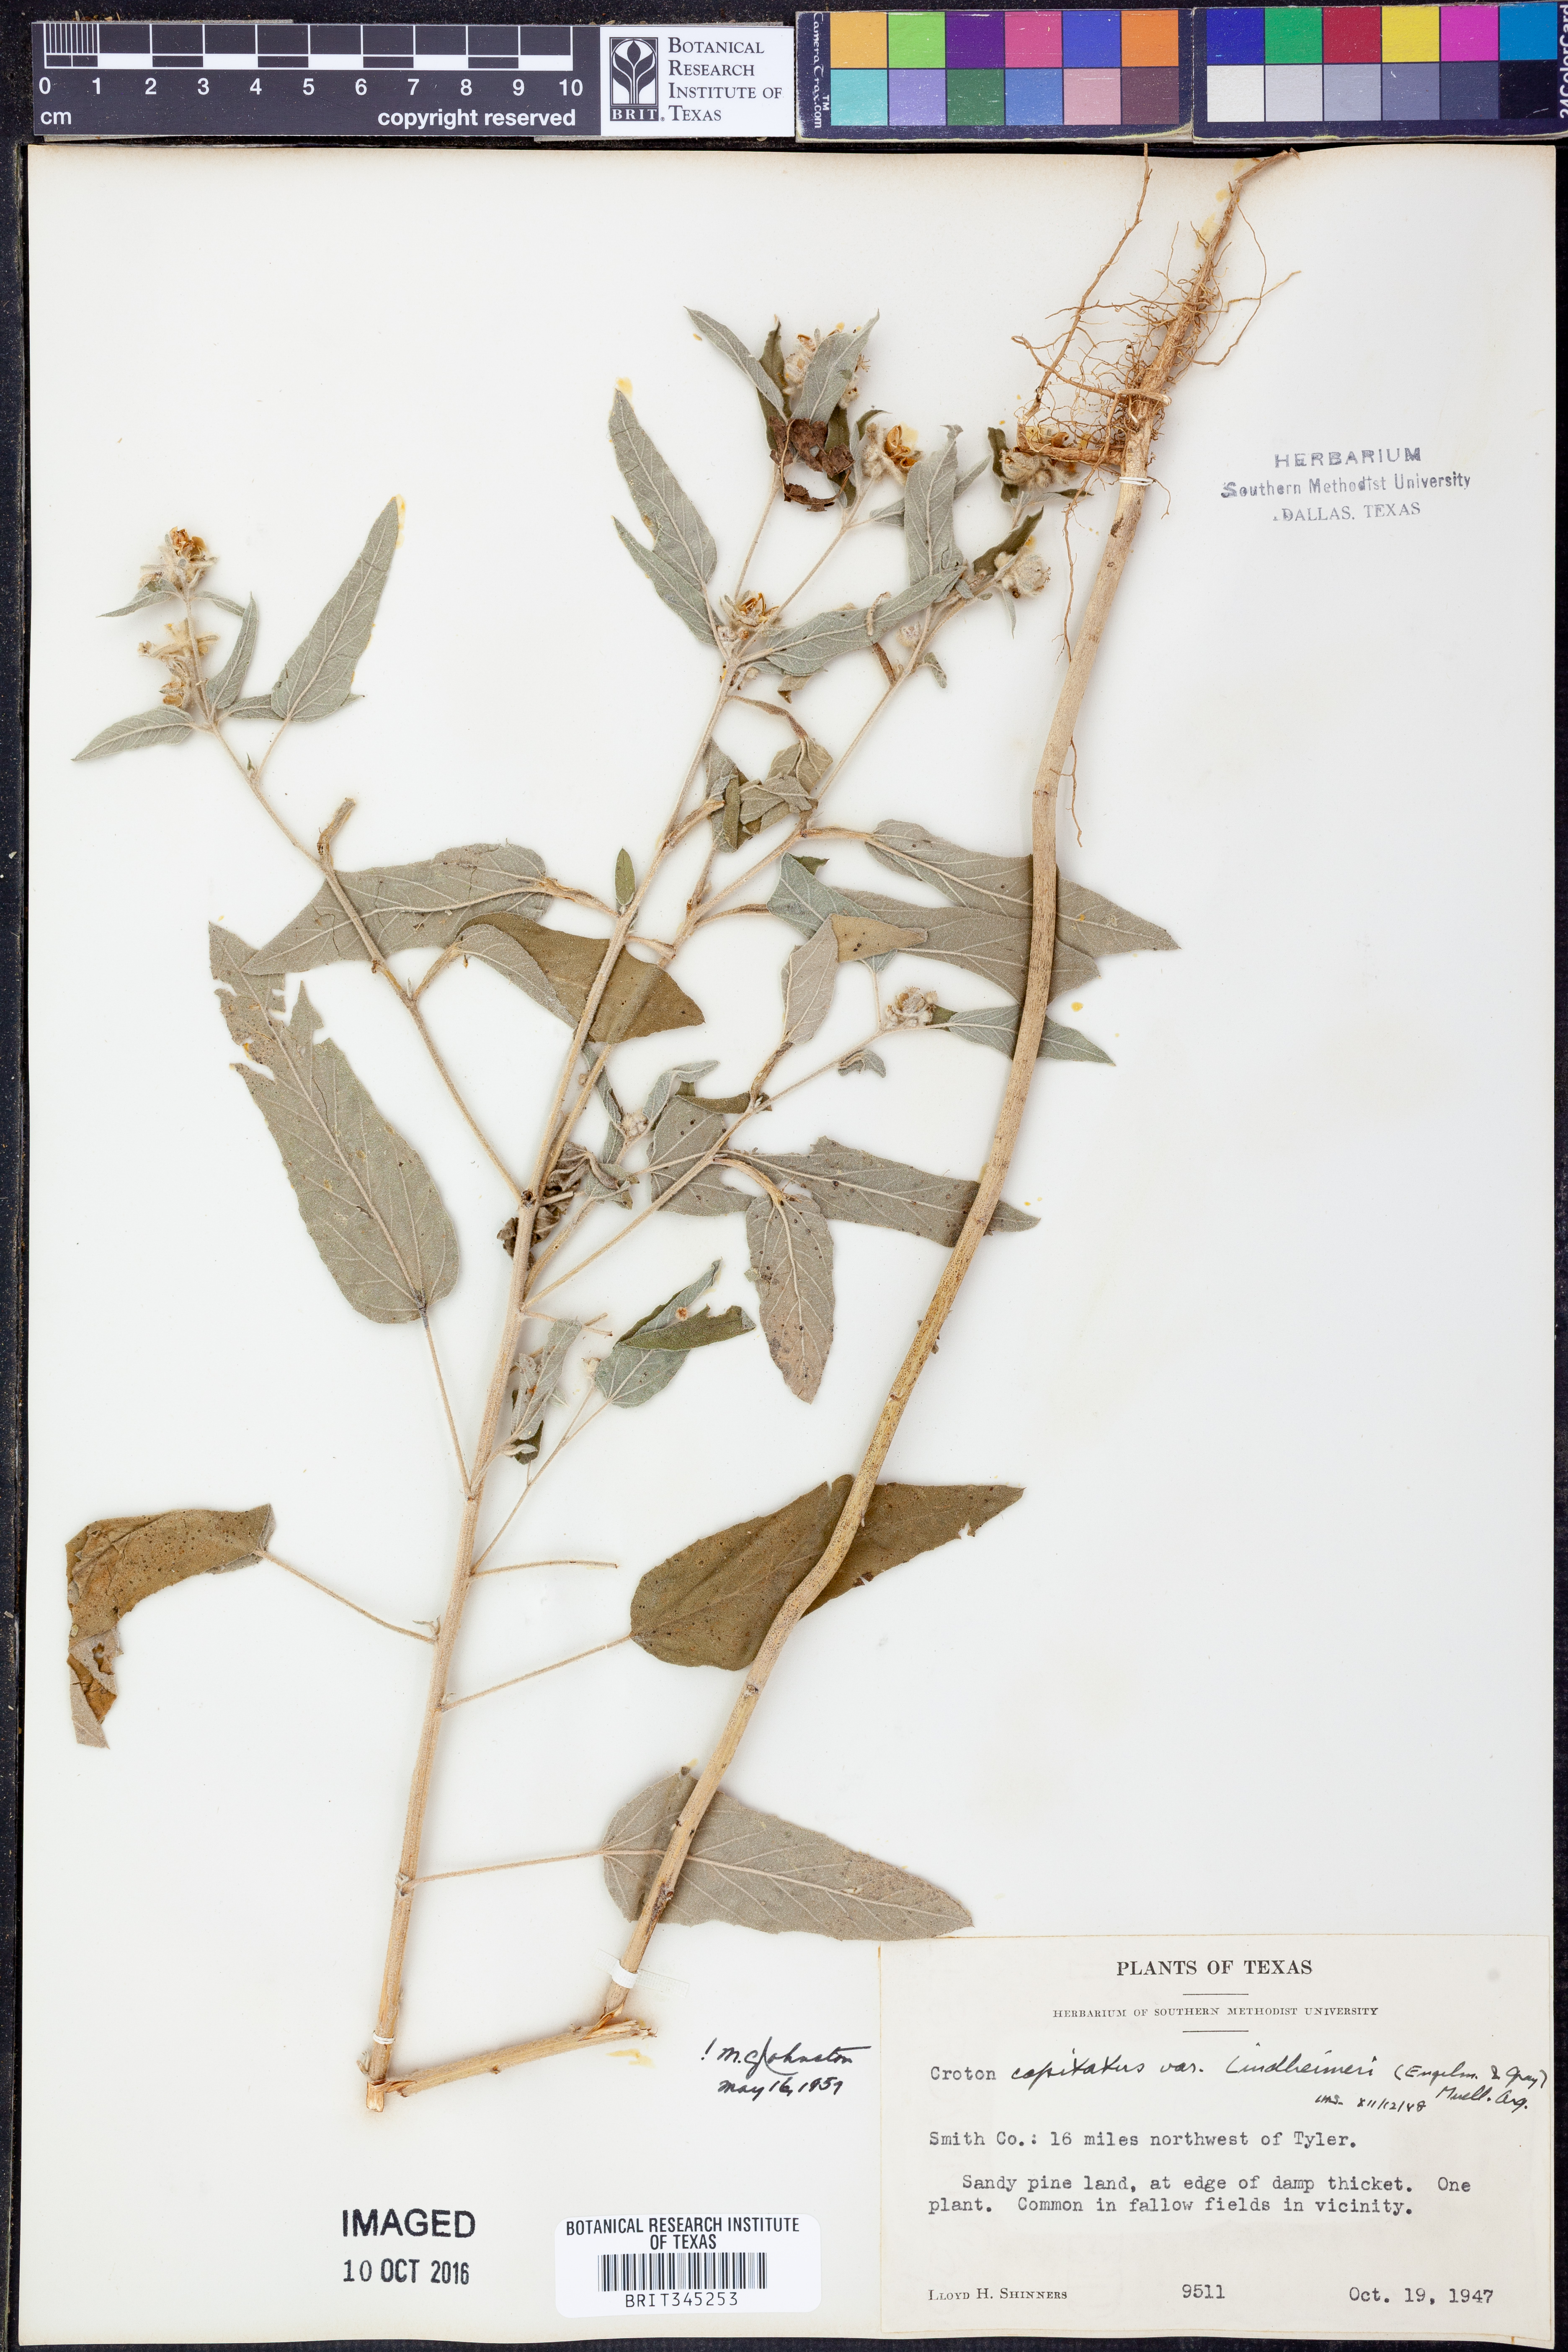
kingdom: Plantae
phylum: Tracheophyta
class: Magnoliopsida
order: Malpighiales
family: Euphorbiaceae
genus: Croton
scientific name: Croton lindheimeri
